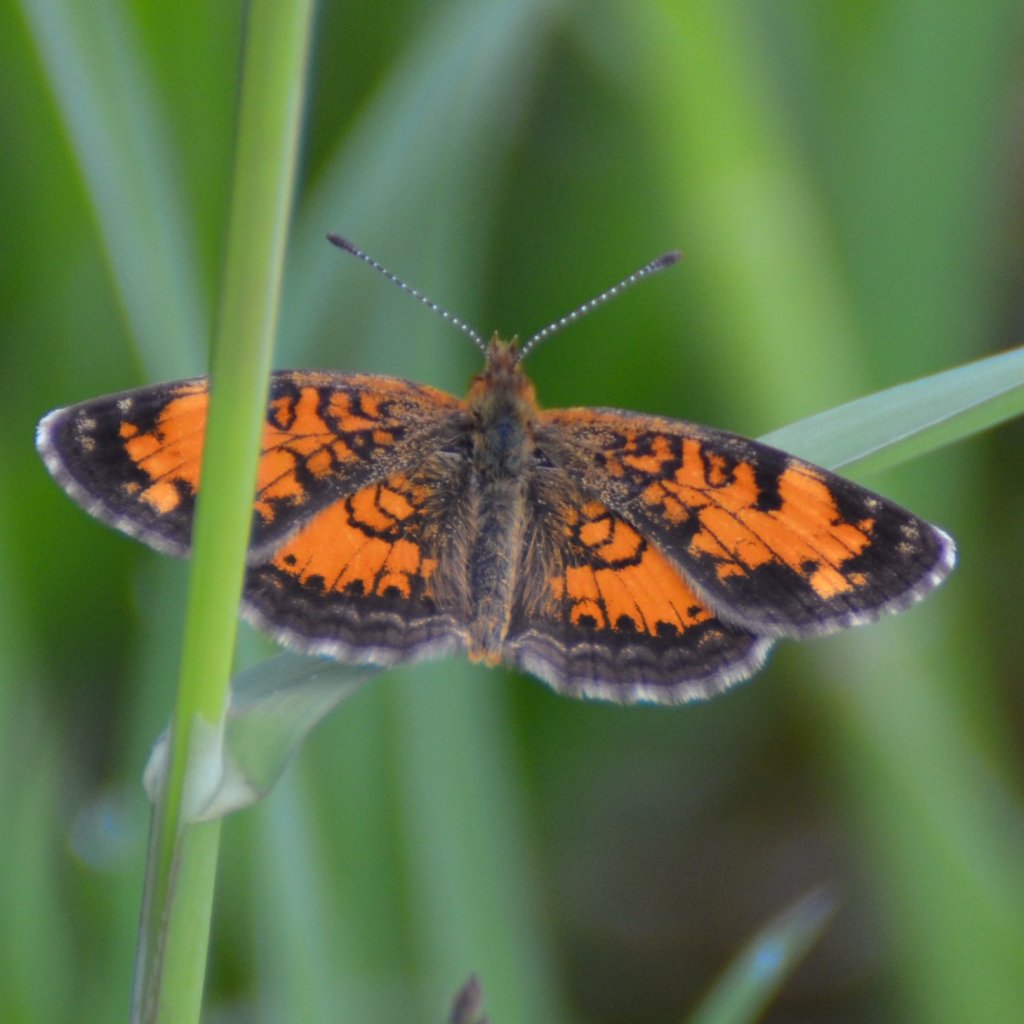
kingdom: Animalia
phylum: Arthropoda
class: Insecta
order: Lepidoptera
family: Nymphalidae
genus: Phyciodes
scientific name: Phyciodes tharos
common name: Northern Crescent
